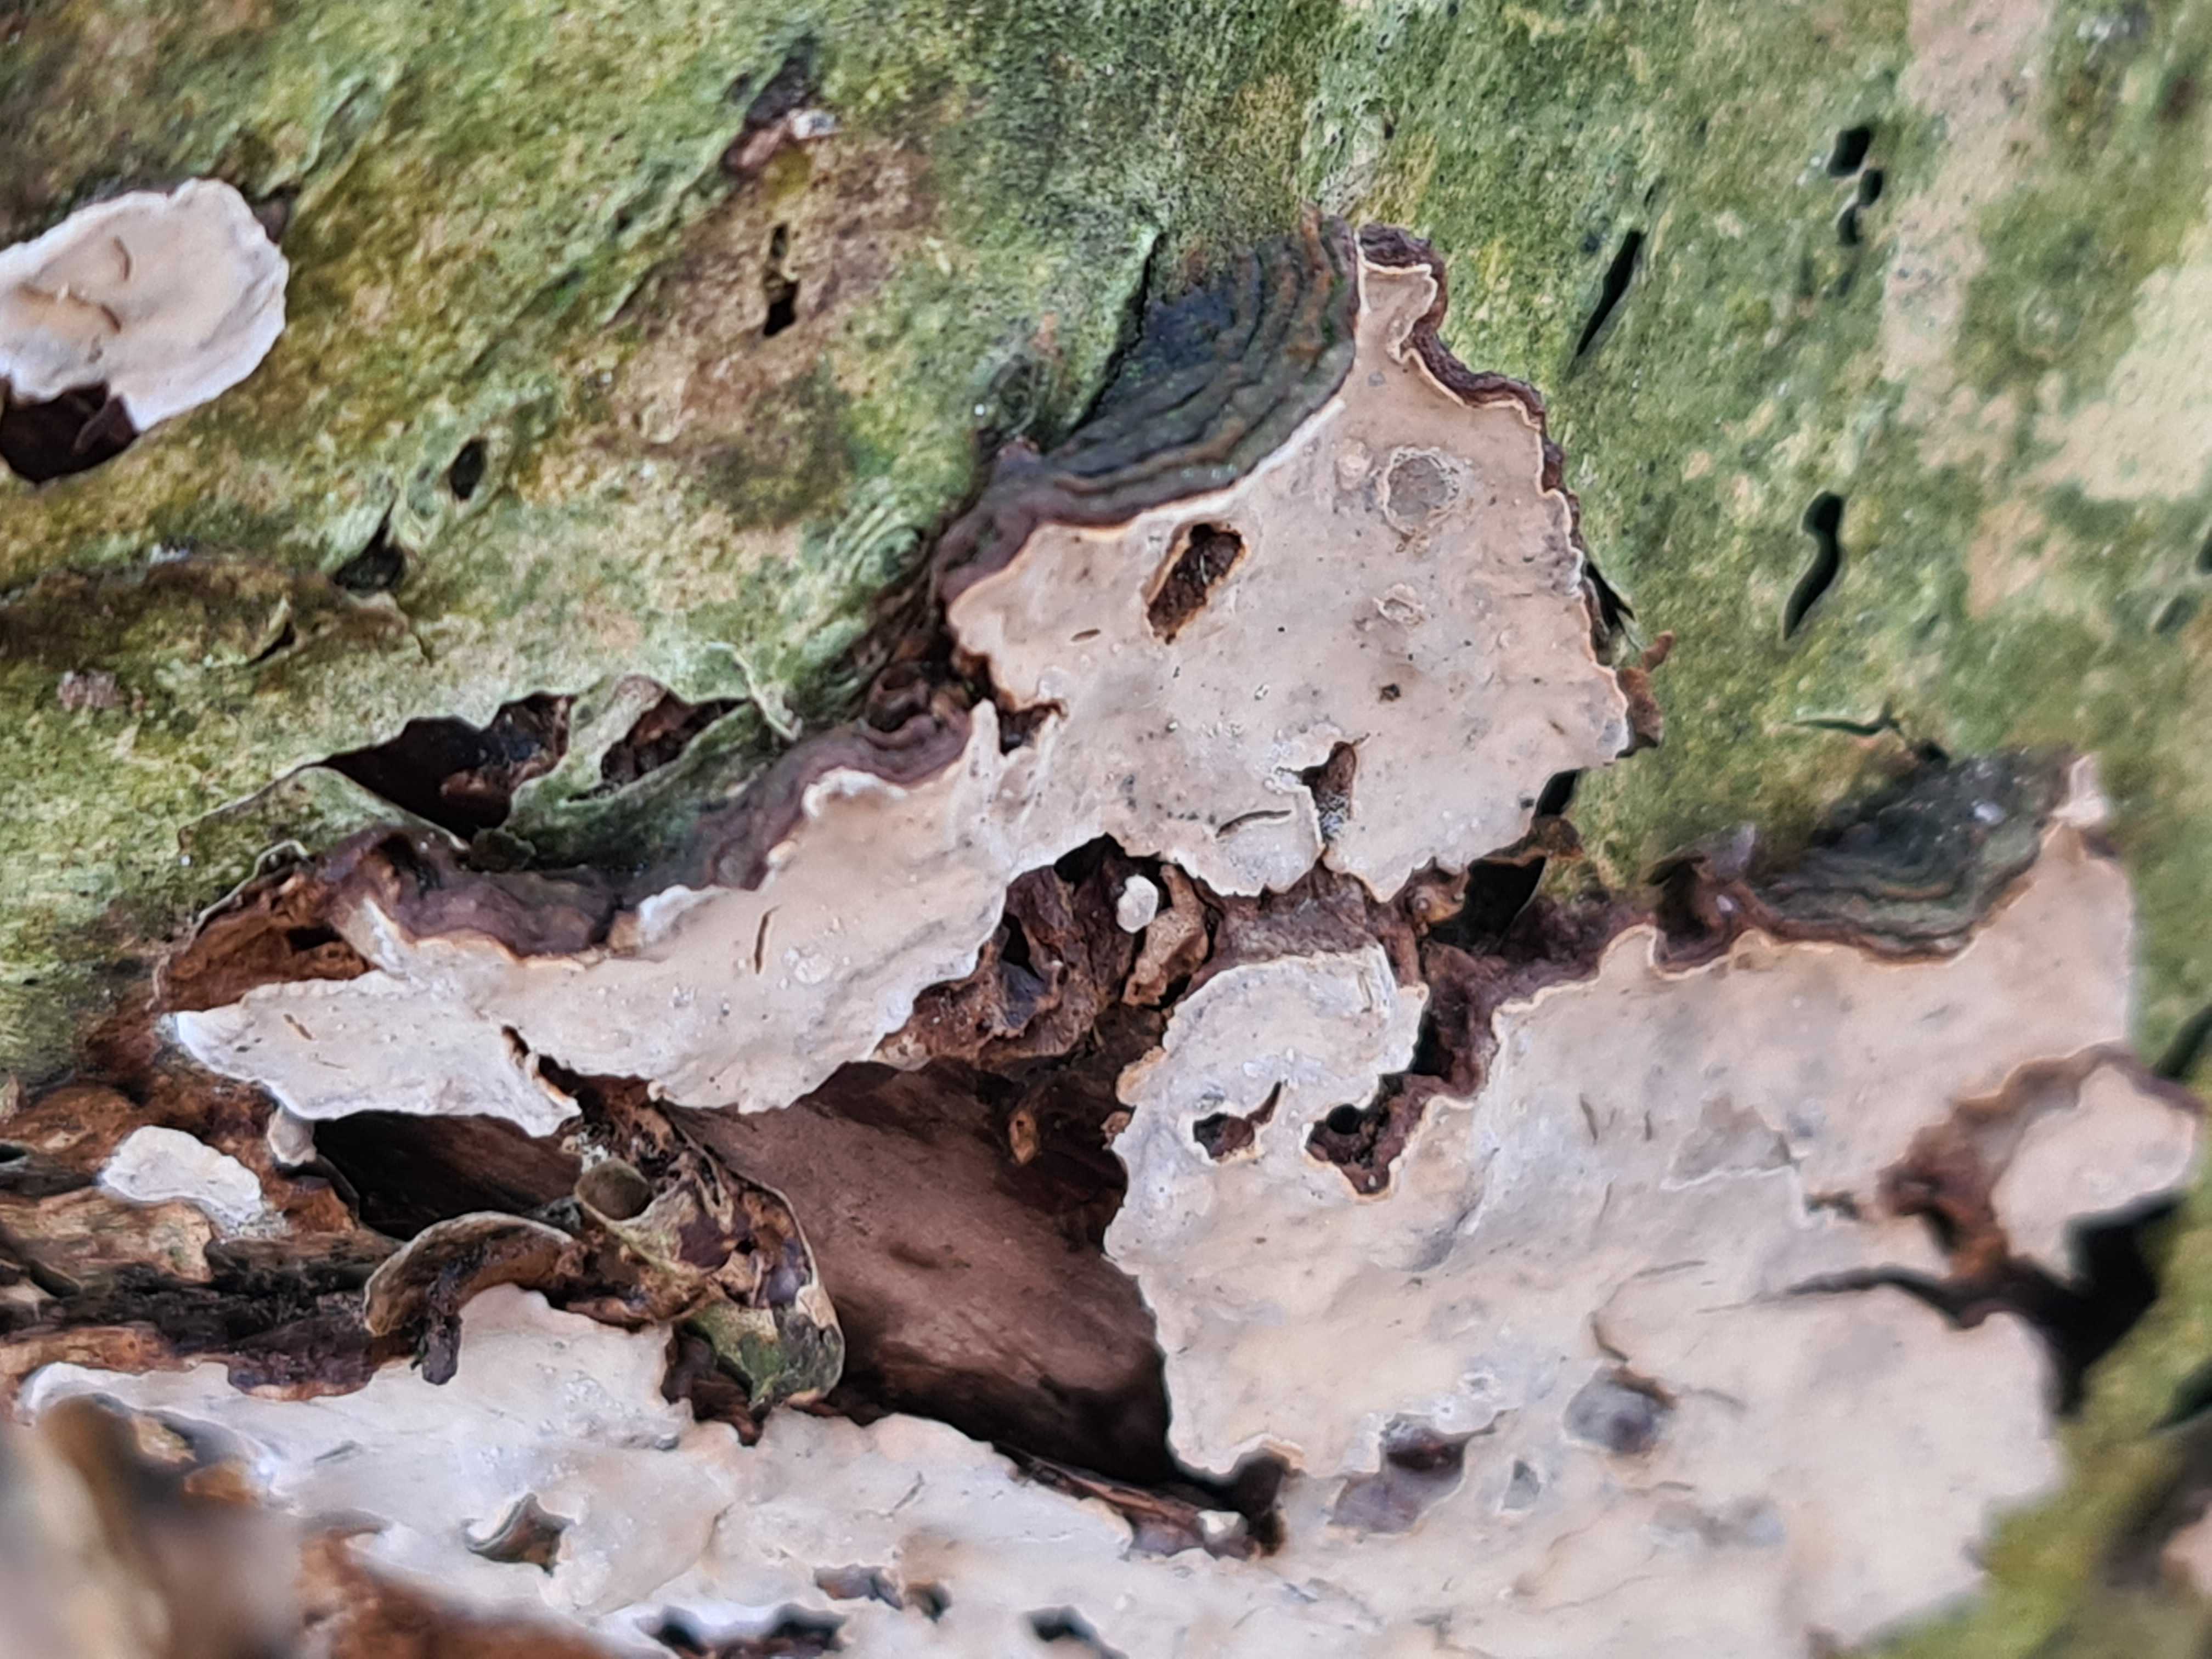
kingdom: Fungi
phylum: Basidiomycota
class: Agaricomycetes
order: Russulales
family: Stereaceae
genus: Stereum
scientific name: Stereum rugosum
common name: rynket lædersvamp
